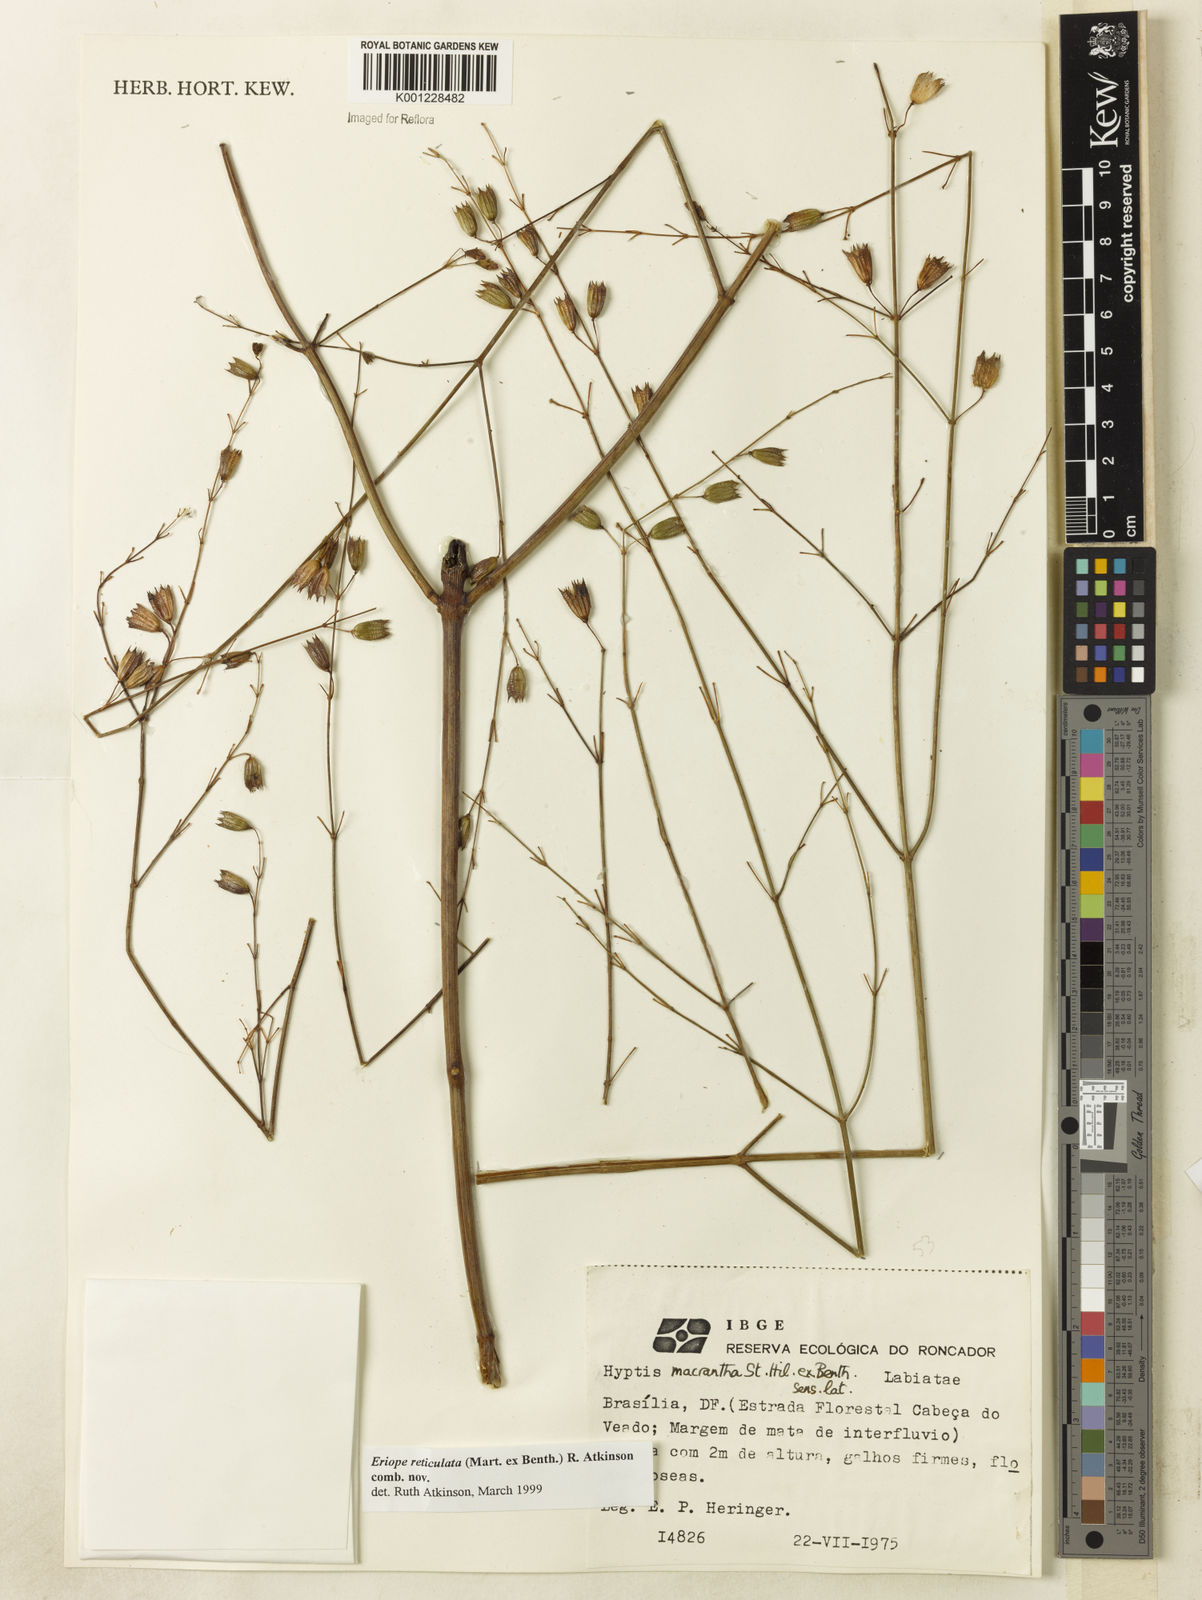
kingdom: Plantae
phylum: Tracheophyta
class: Magnoliopsida
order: Lamiales
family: Lamiaceae
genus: Hypenia
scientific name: Hypenia reticulata
